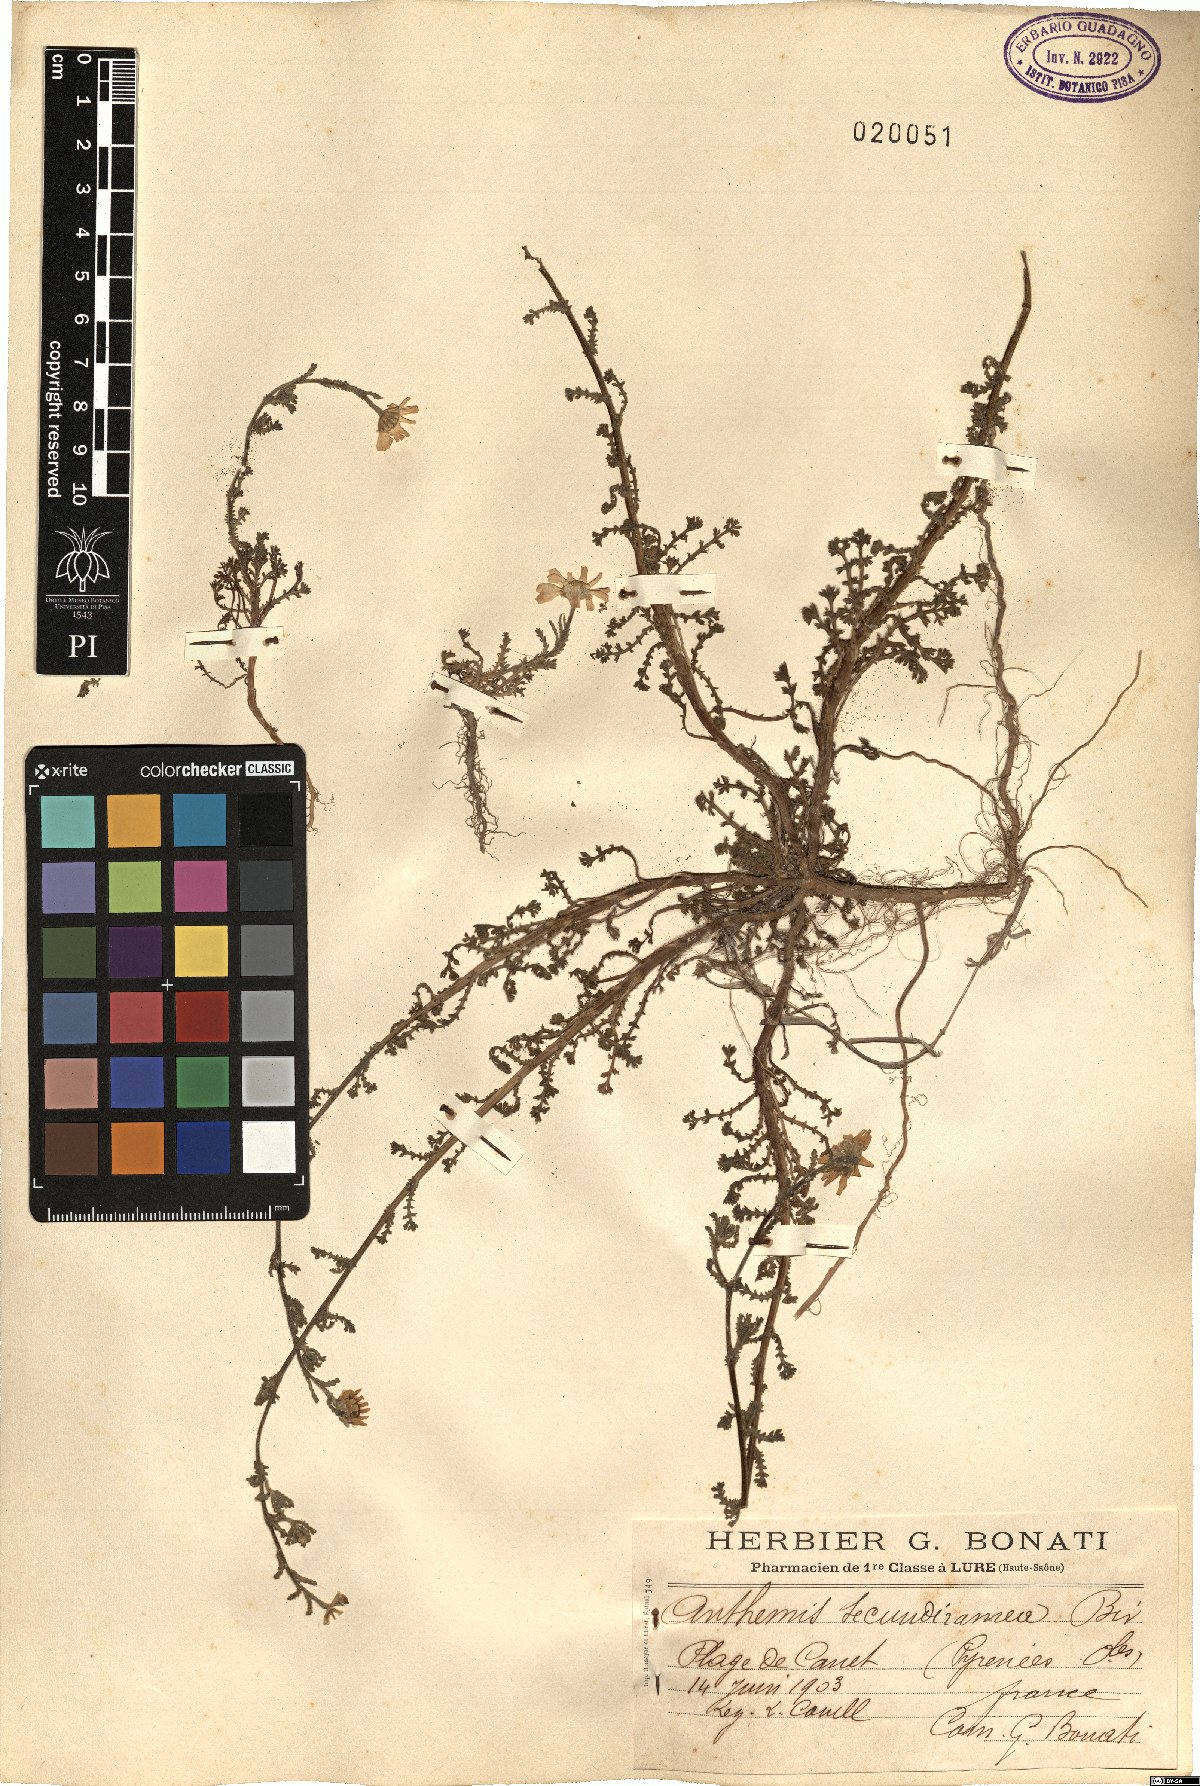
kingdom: Plantae
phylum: Tracheophyta
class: Magnoliopsida
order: Asterales
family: Asteraceae
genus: Anthemis
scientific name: Anthemis secundiramea
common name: Prostrate chamomile
